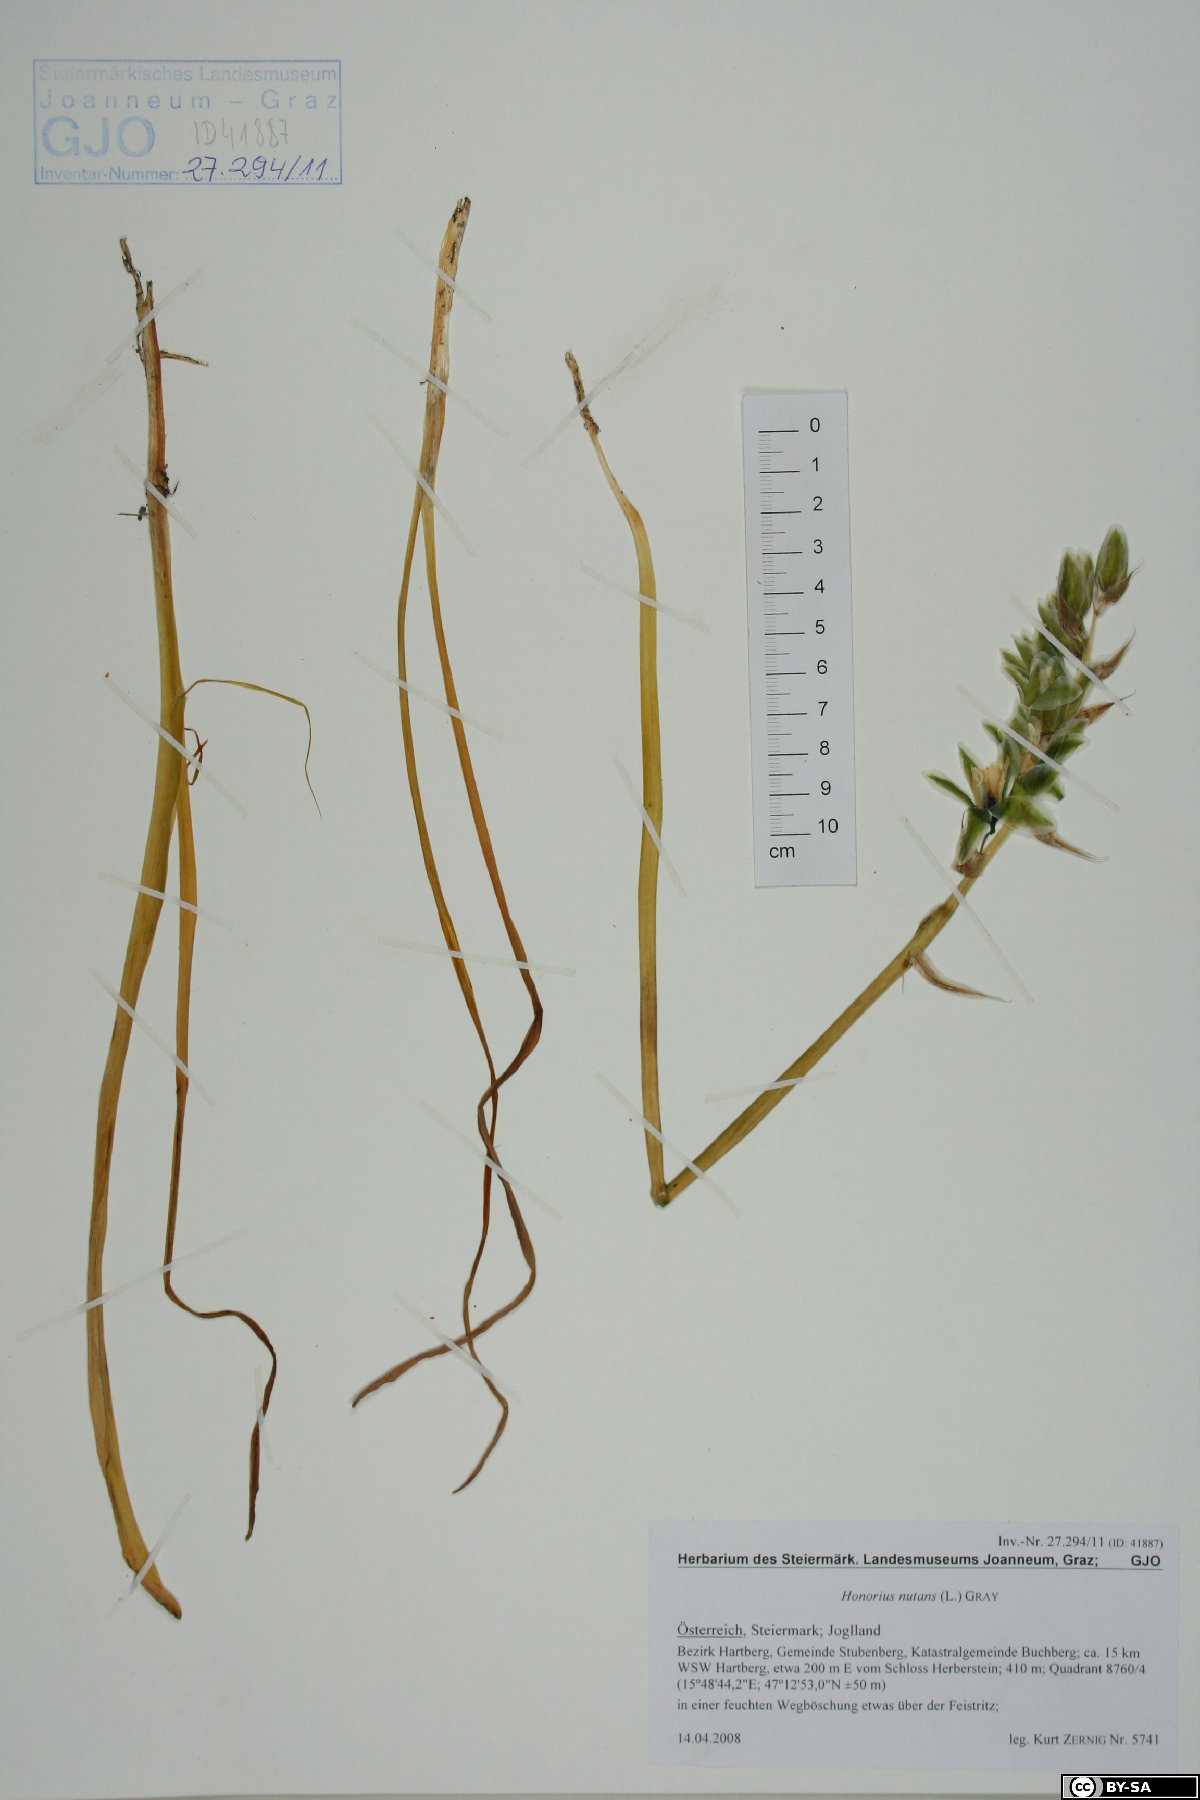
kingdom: Plantae
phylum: Tracheophyta
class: Liliopsida
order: Asparagales
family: Asparagaceae
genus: Ornithogalum
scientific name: Ornithogalum nutans
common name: Drooping star-of-bethlehem
